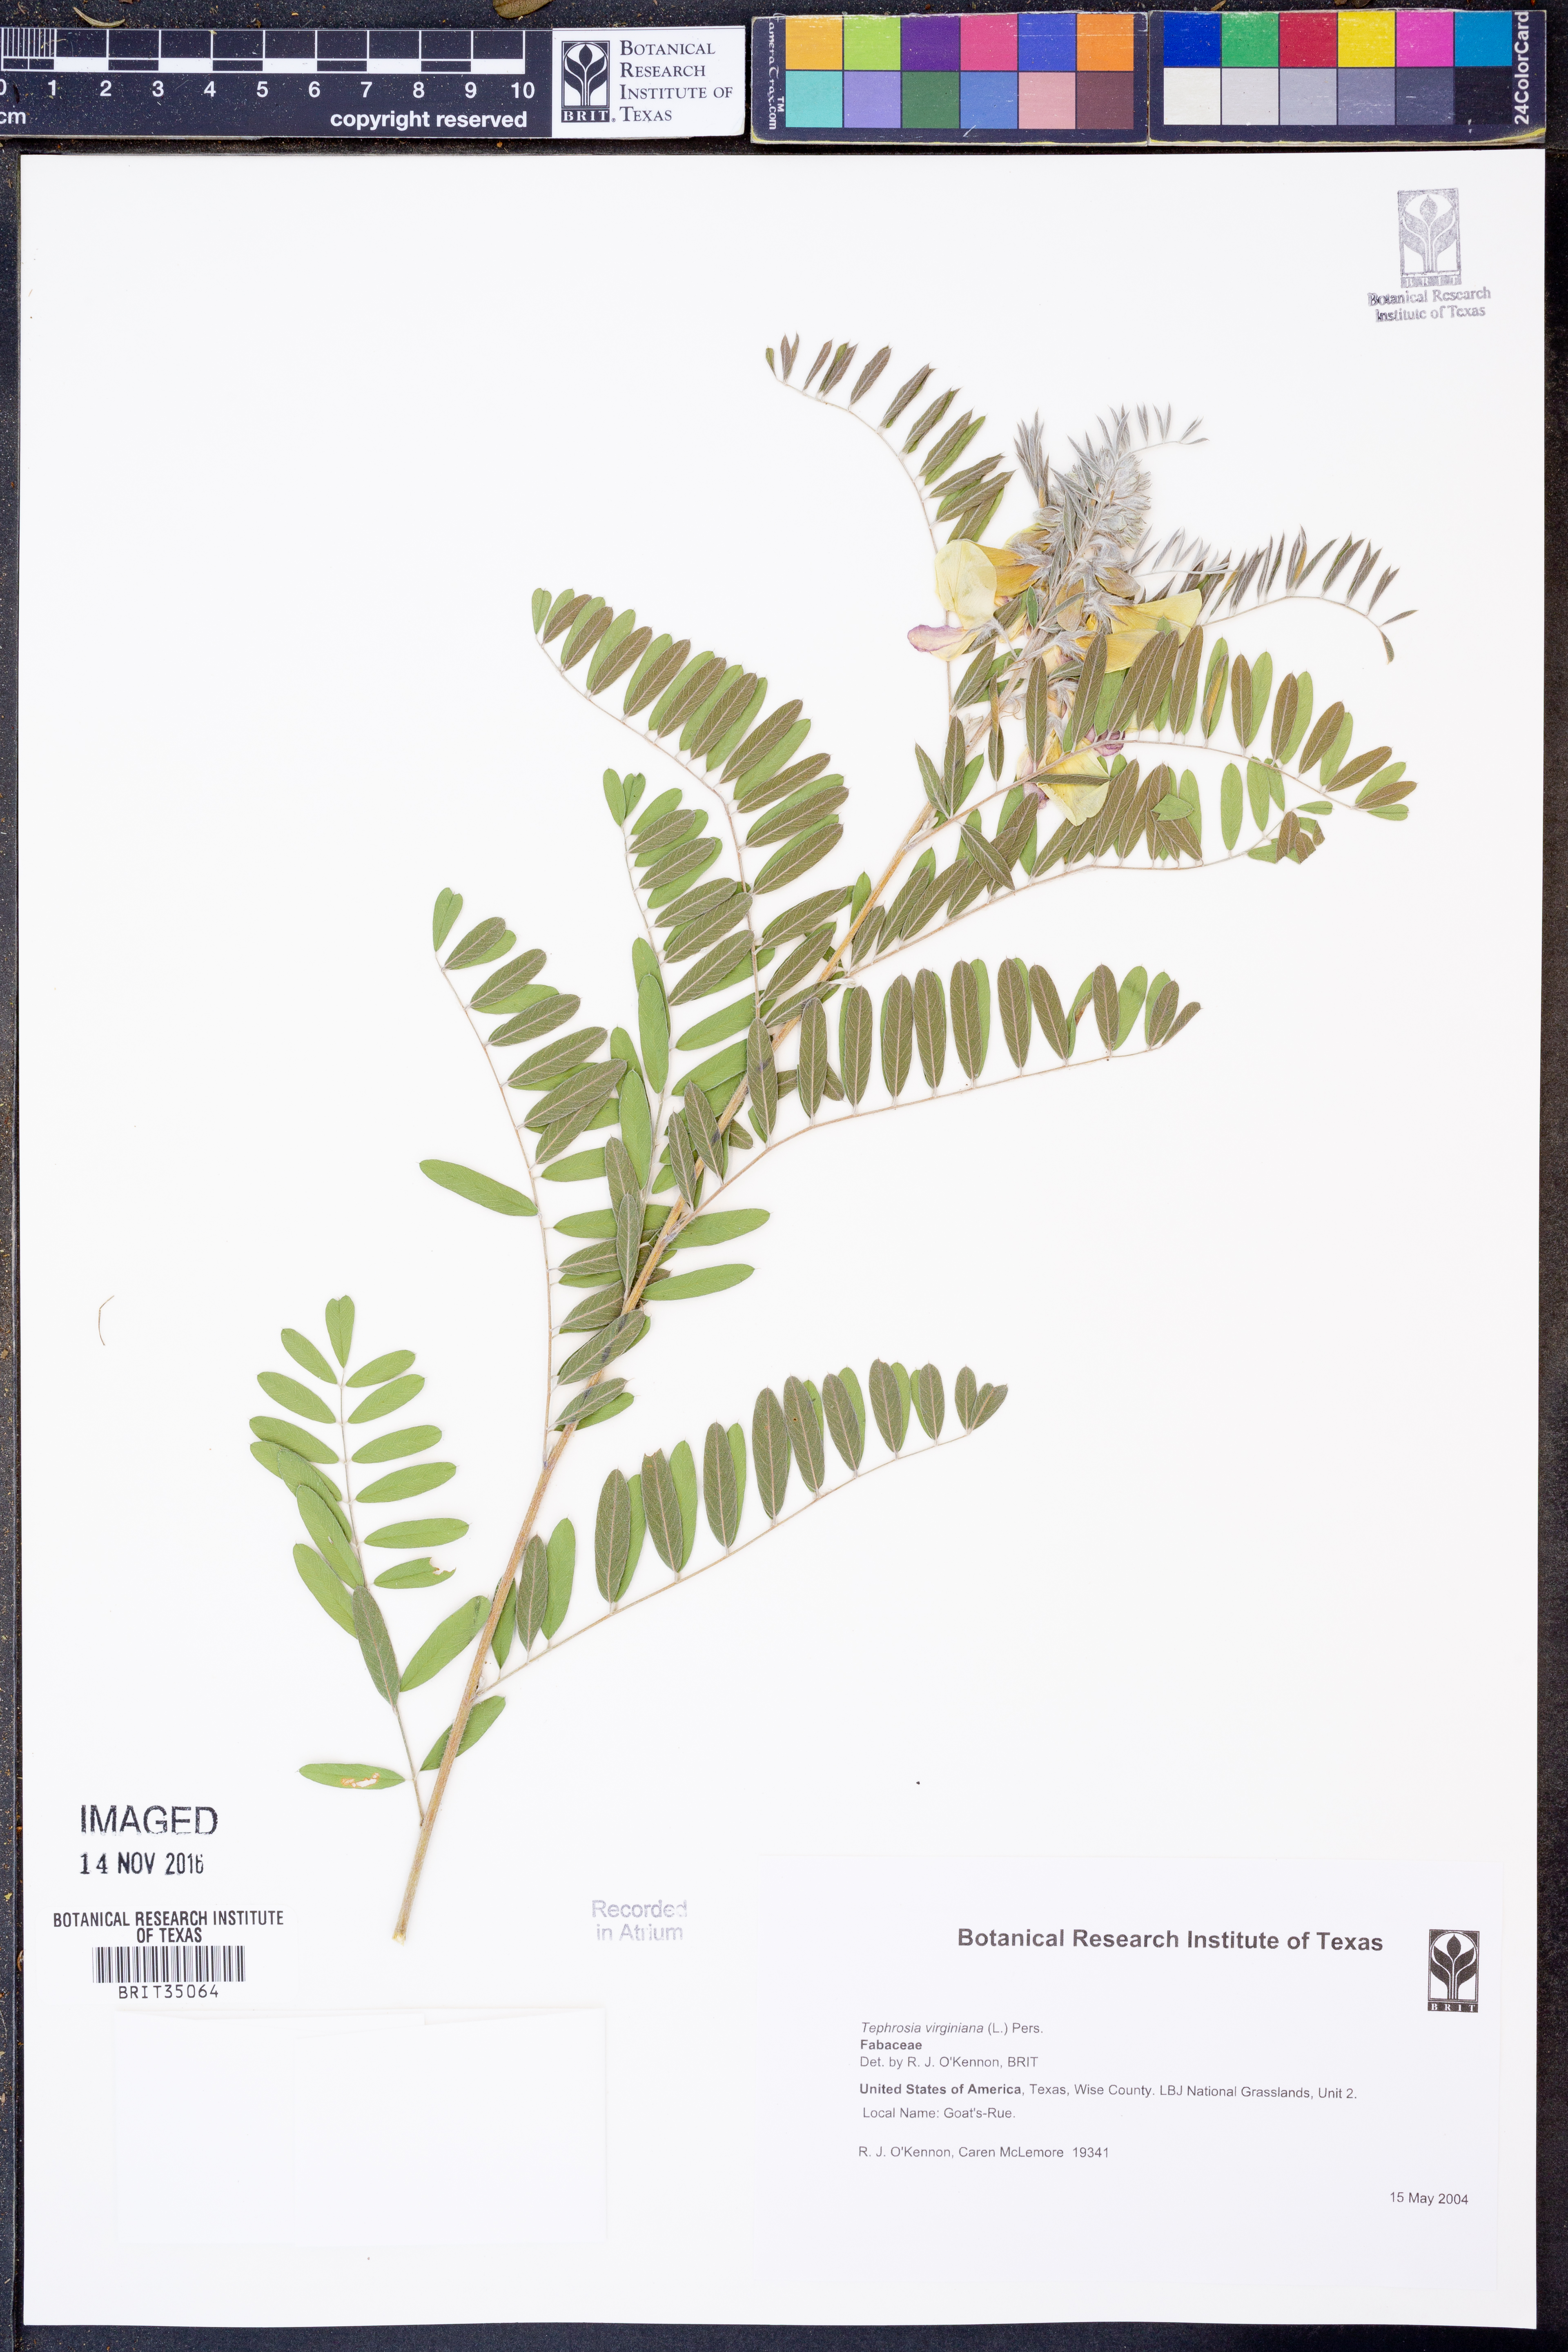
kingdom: Plantae
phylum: Tracheophyta
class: Magnoliopsida
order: Fabales
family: Fabaceae
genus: Tephrosia
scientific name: Tephrosia virginiana
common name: Rabbit-pea
